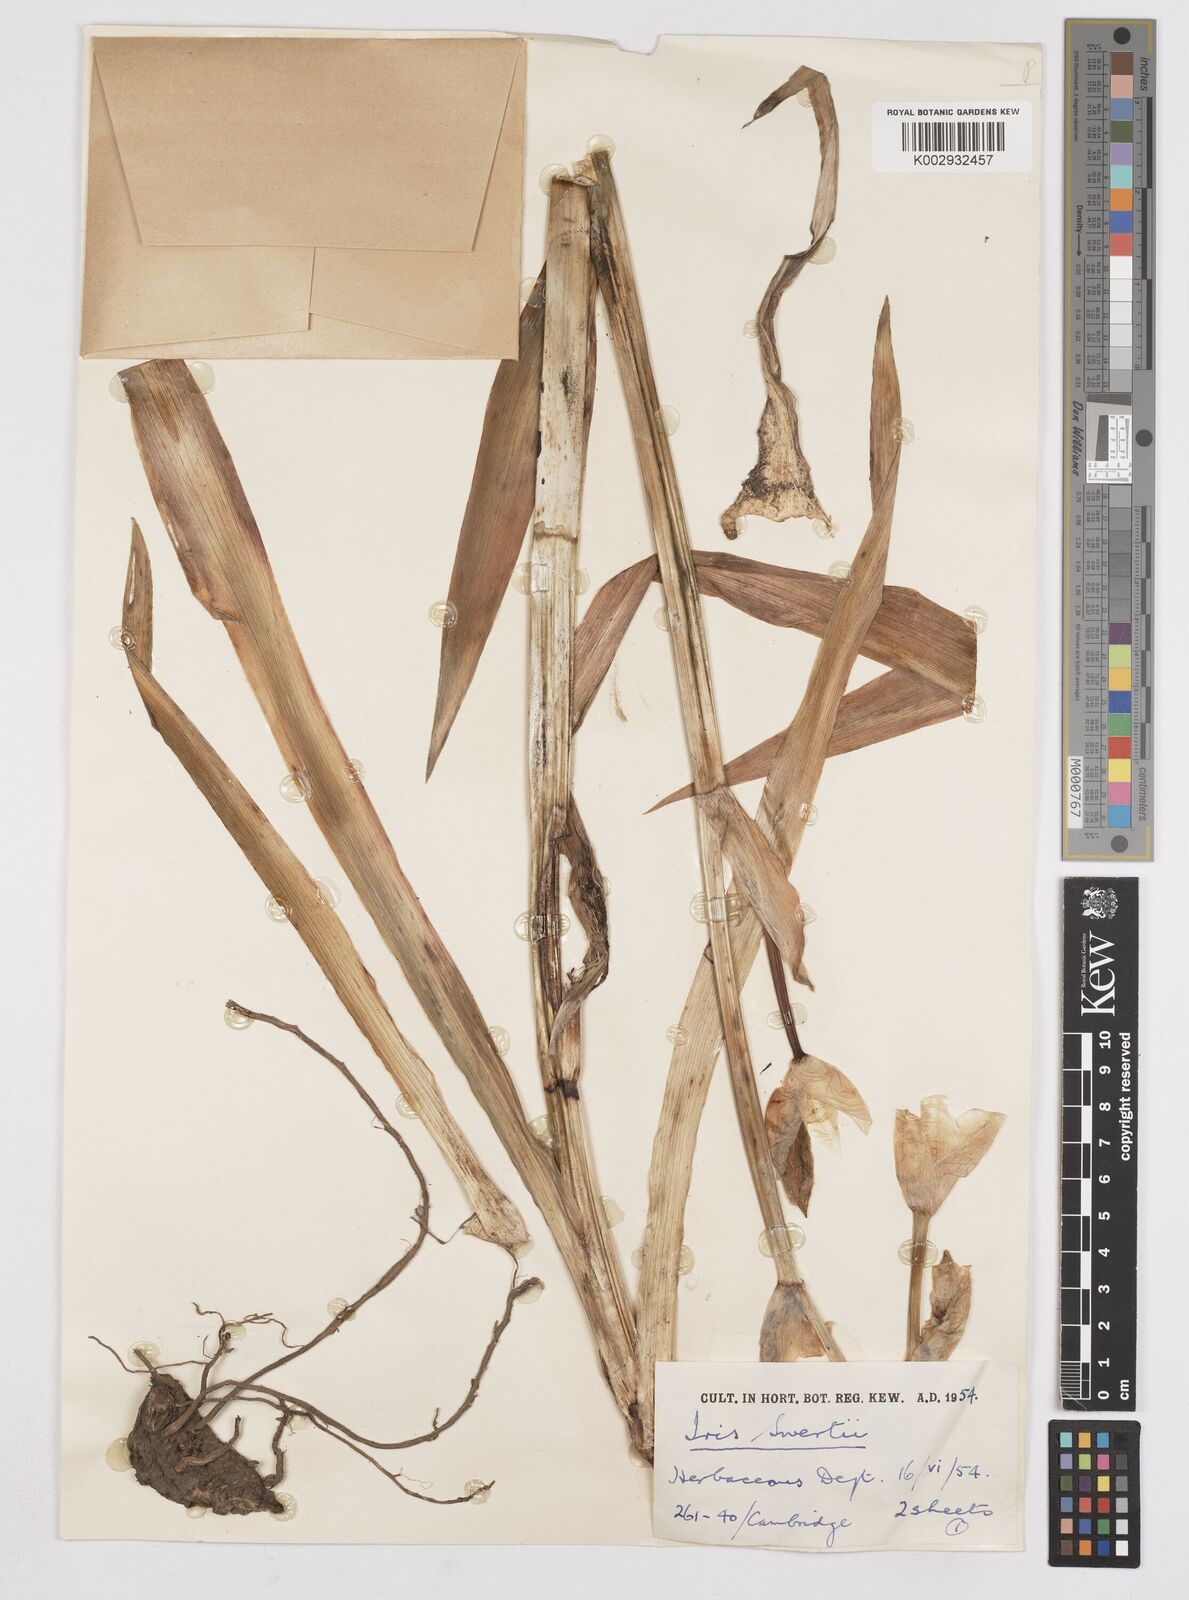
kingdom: Plantae
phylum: Tracheophyta
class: Liliopsida
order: Asparagales
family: Iridaceae
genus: Iris
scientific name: Iris pallida
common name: Sweet iris
